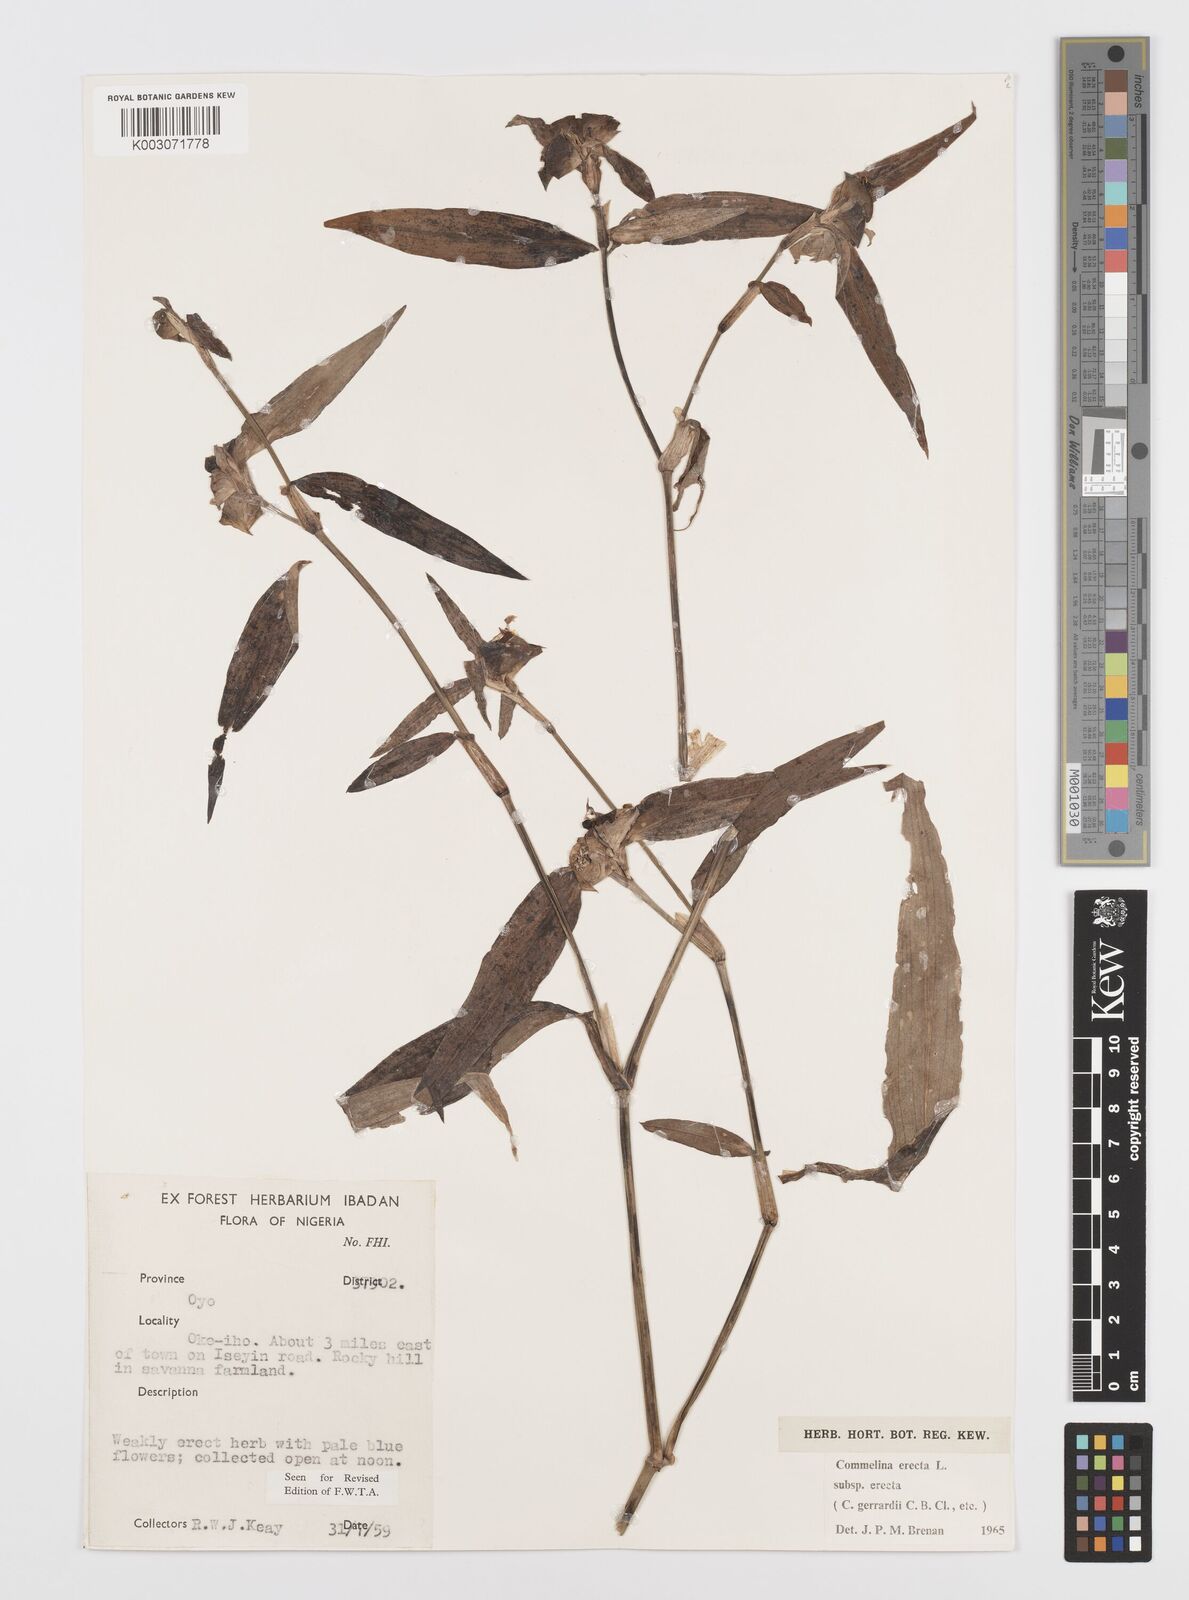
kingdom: Plantae
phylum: Tracheophyta
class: Liliopsida
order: Commelinales
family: Commelinaceae
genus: Commelina
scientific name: Commelina erecta
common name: Blousel blommetjie
